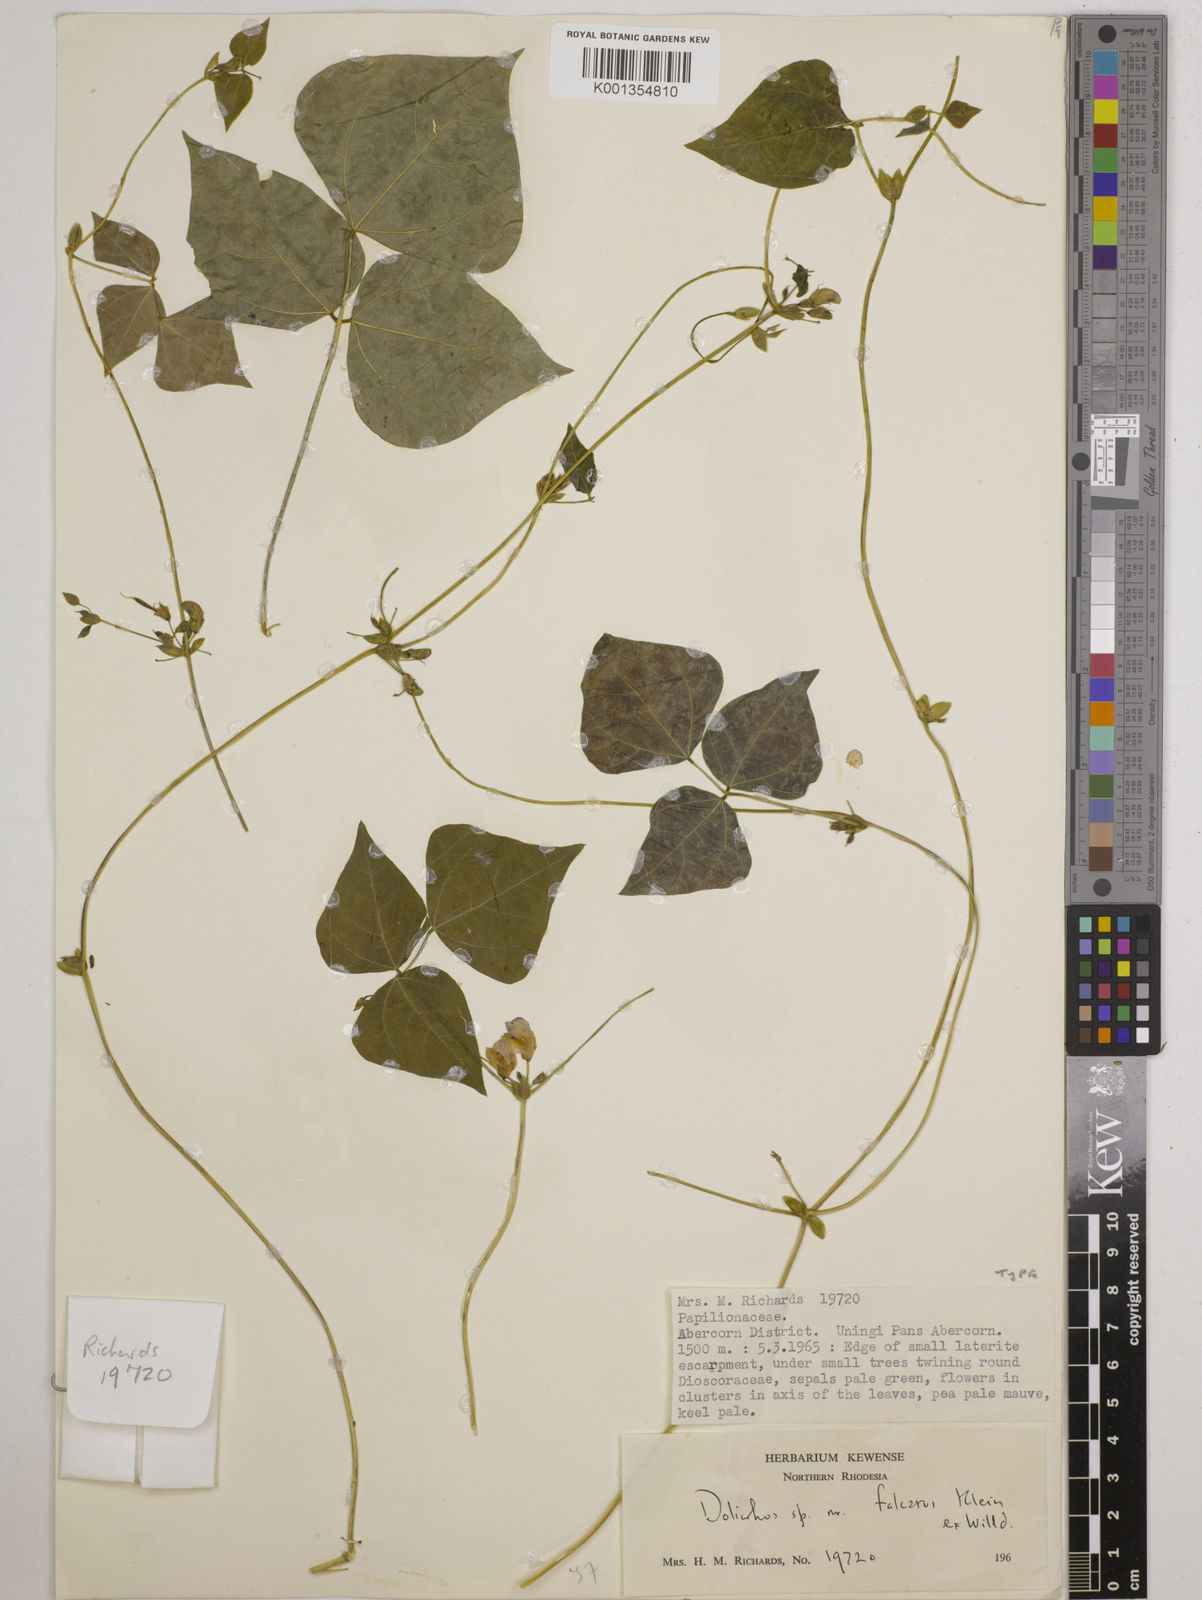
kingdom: Plantae
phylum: Tracheophyta
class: Magnoliopsida
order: Fabales
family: Fabaceae
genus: Dolichos
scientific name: Dolichos
